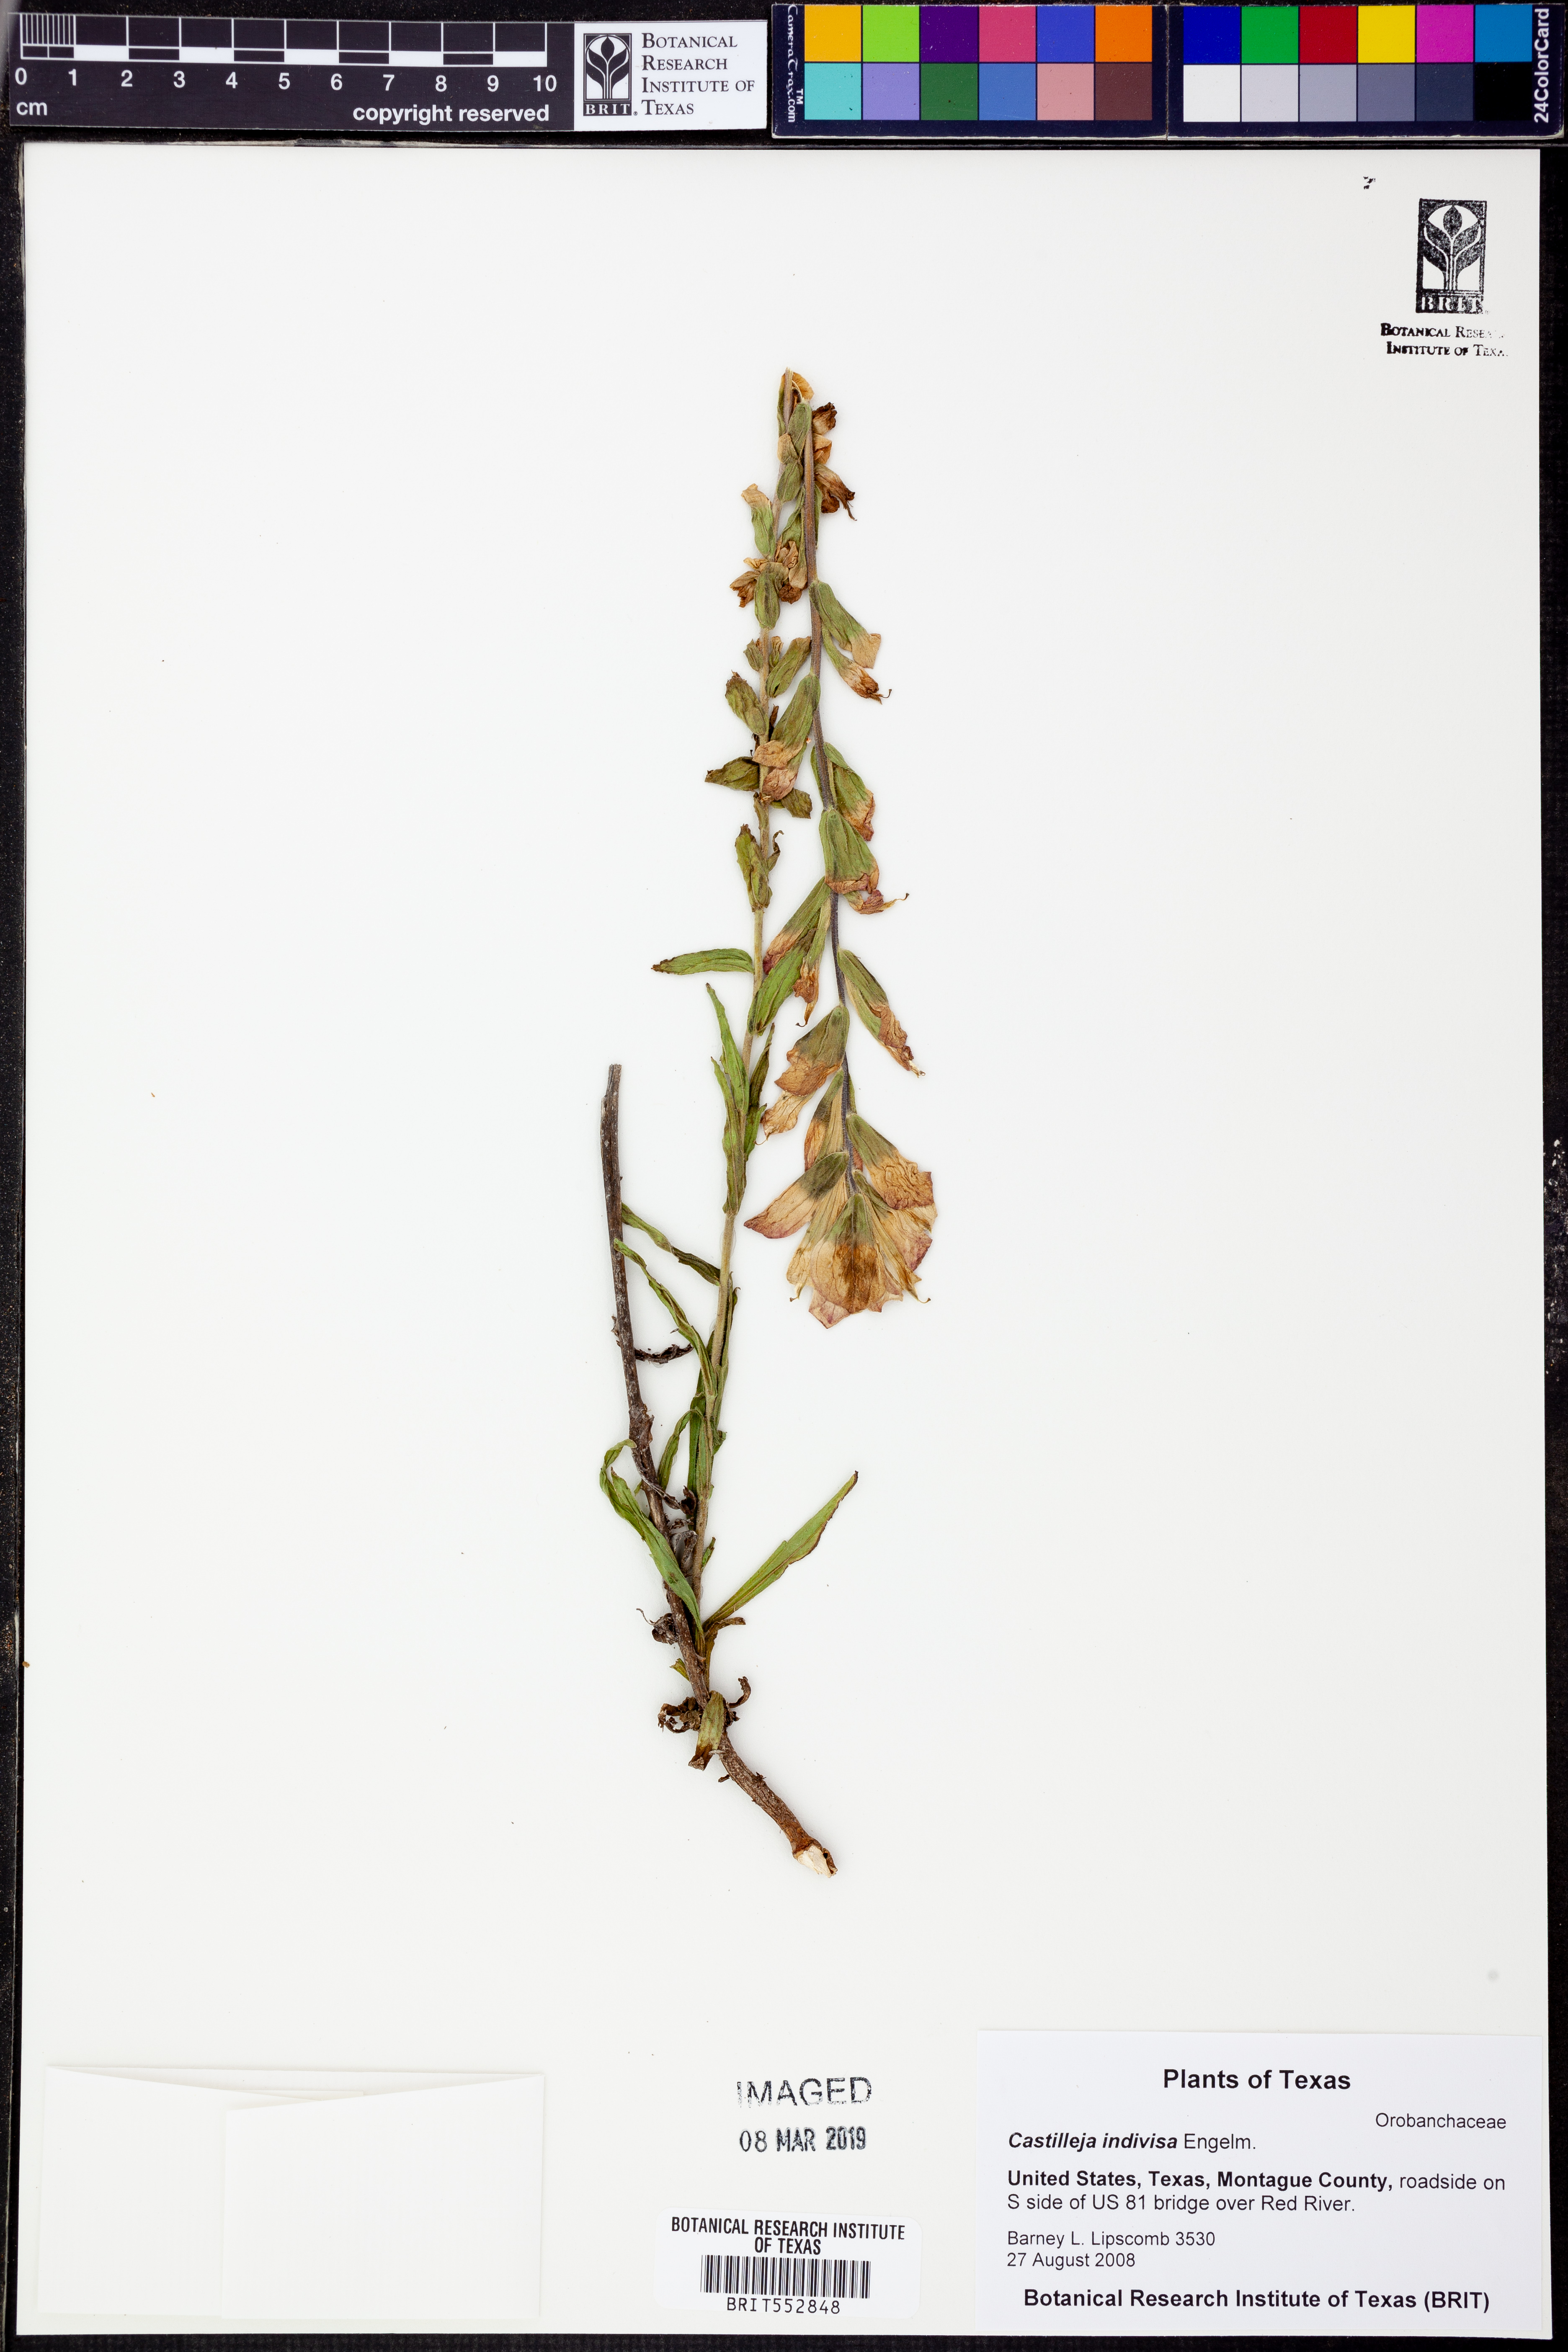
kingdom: Plantae
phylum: Tracheophyta
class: Magnoliopsida
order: Lamiales
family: Orobanchaceae
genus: Castilleja
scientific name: Castilleja indivisa
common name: Texas paintbrush
